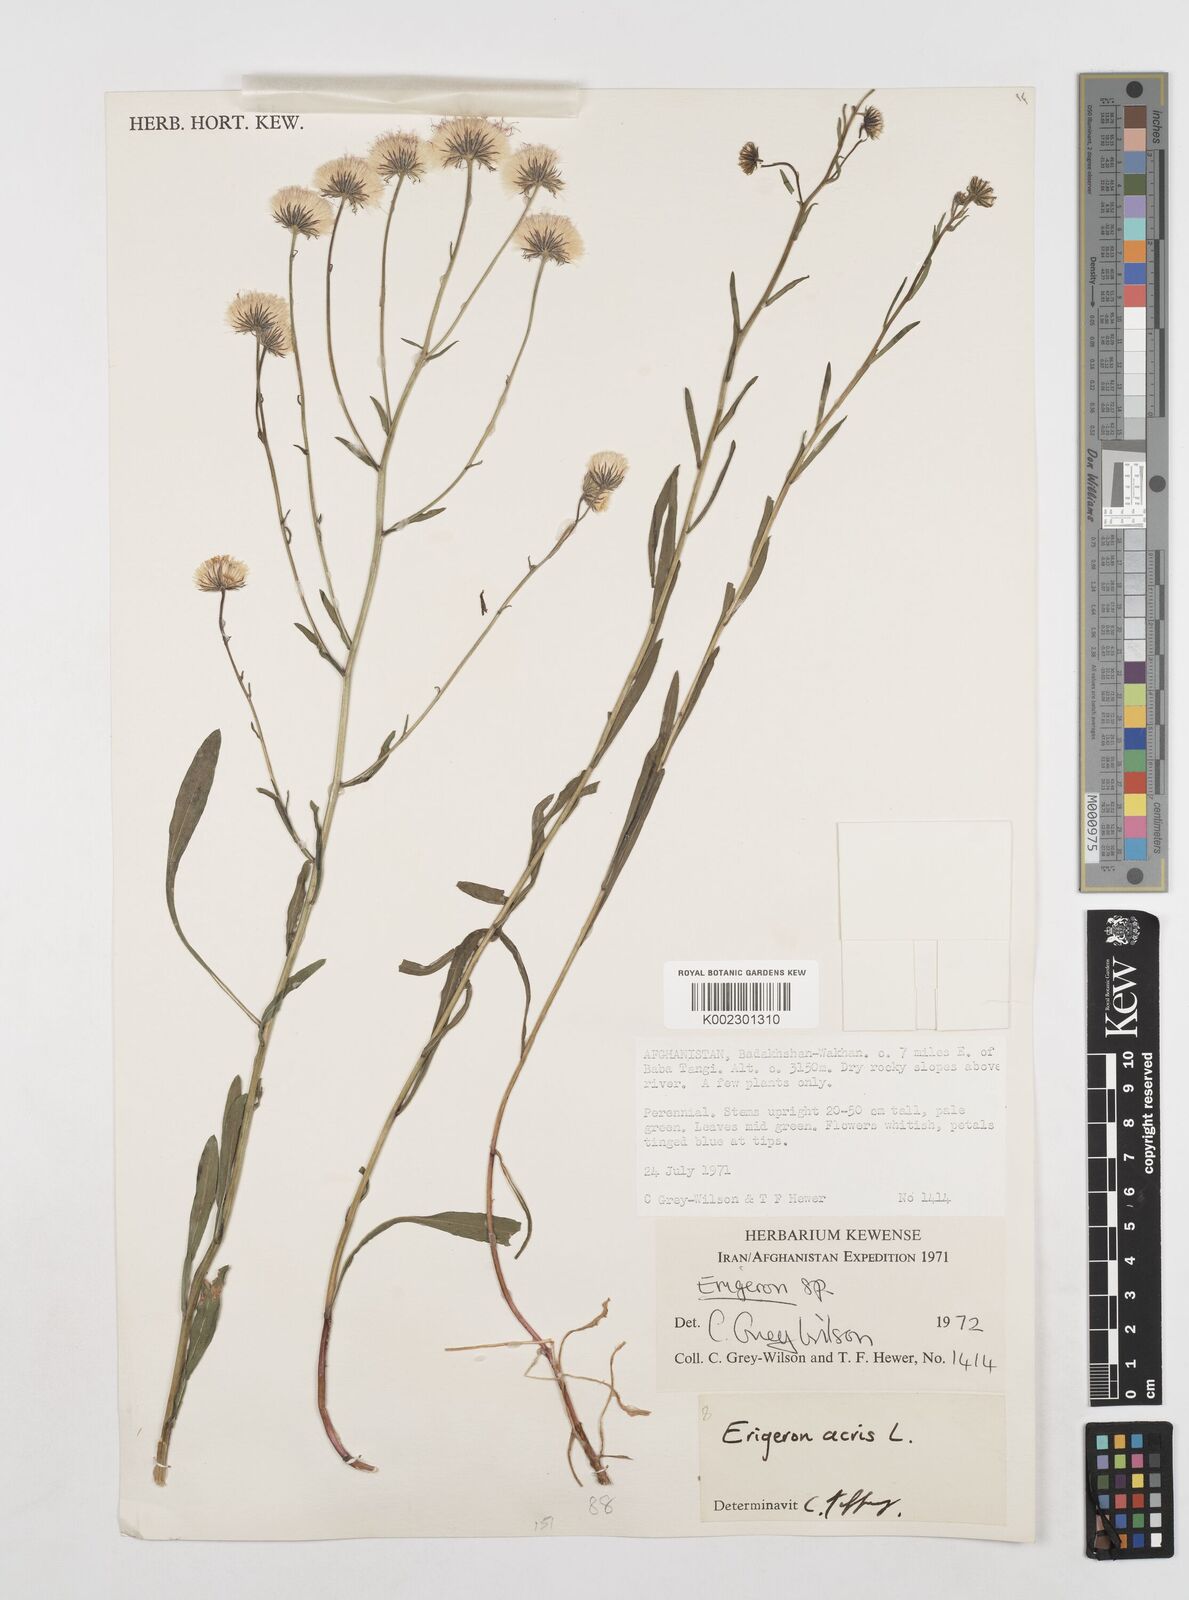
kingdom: Plantae
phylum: Tracheophyta
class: Magnoliopsida
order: Asterales
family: Asteraceae
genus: Erigeron
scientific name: Erigeron acris
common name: Blue fleabane
